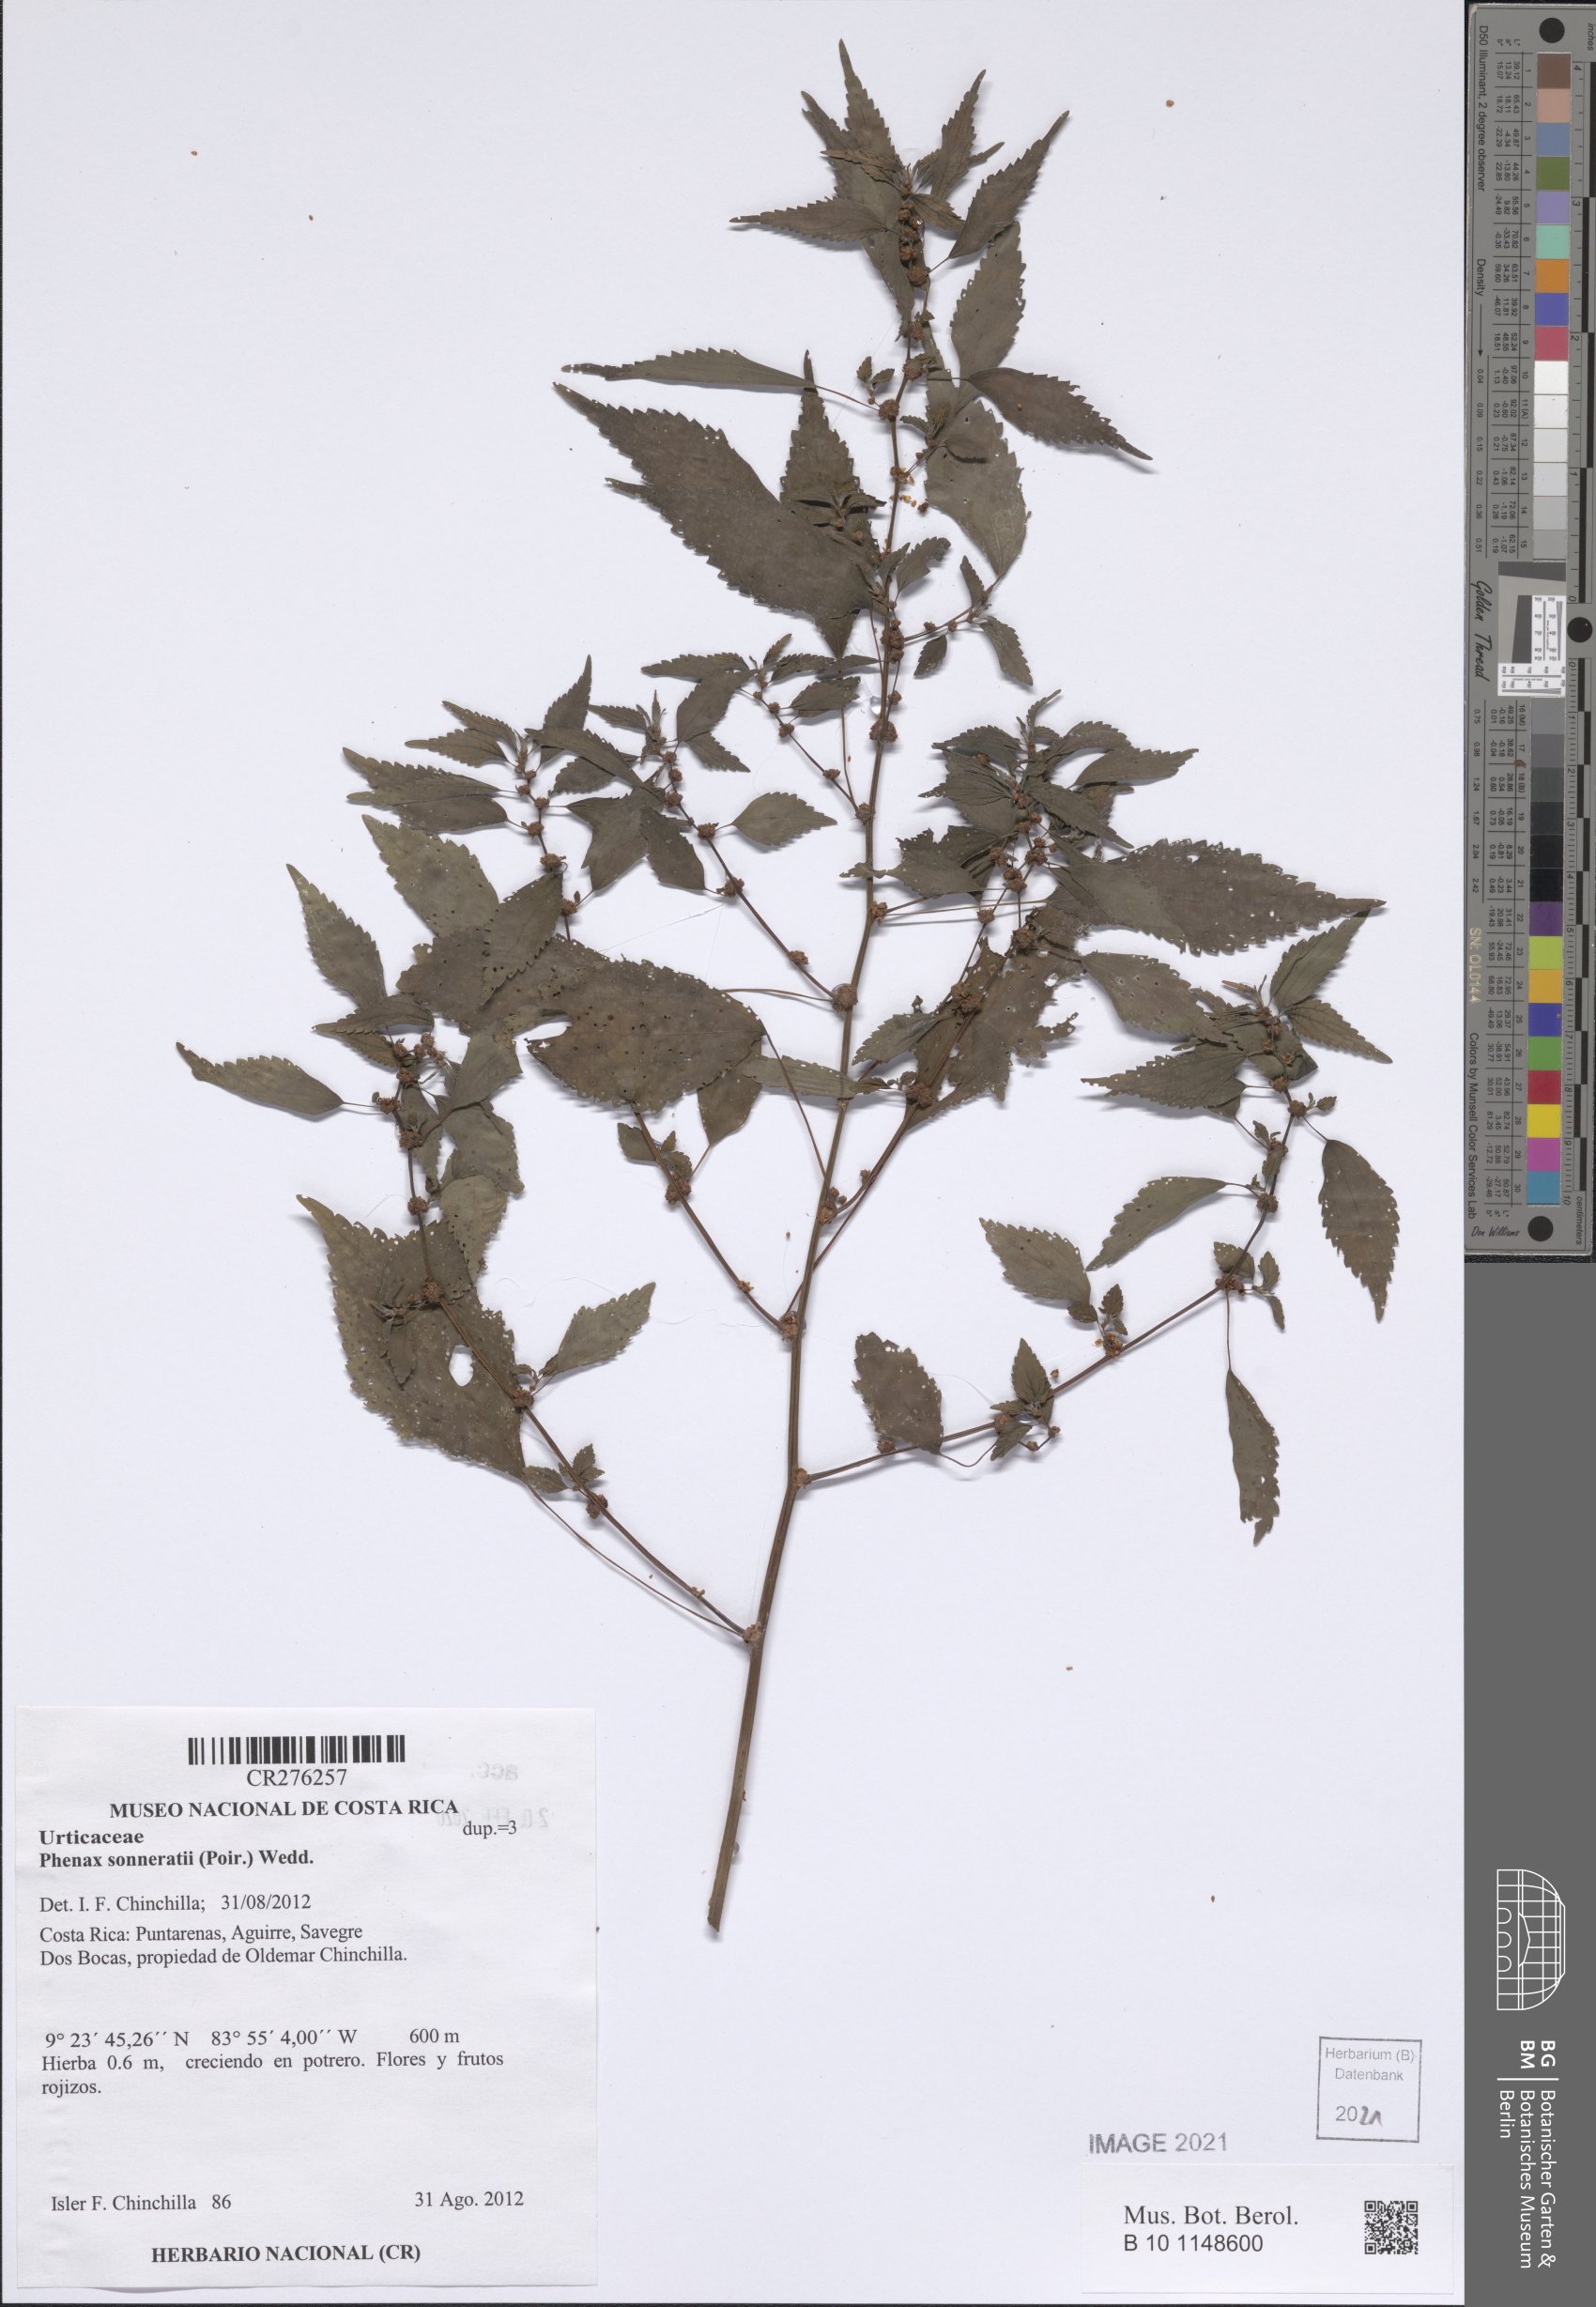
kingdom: Plantae
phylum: Tracheophyta
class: Magnoliopsida
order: Rosales
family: Urticaceae
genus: Phenax
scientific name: Phenax sonneratii
